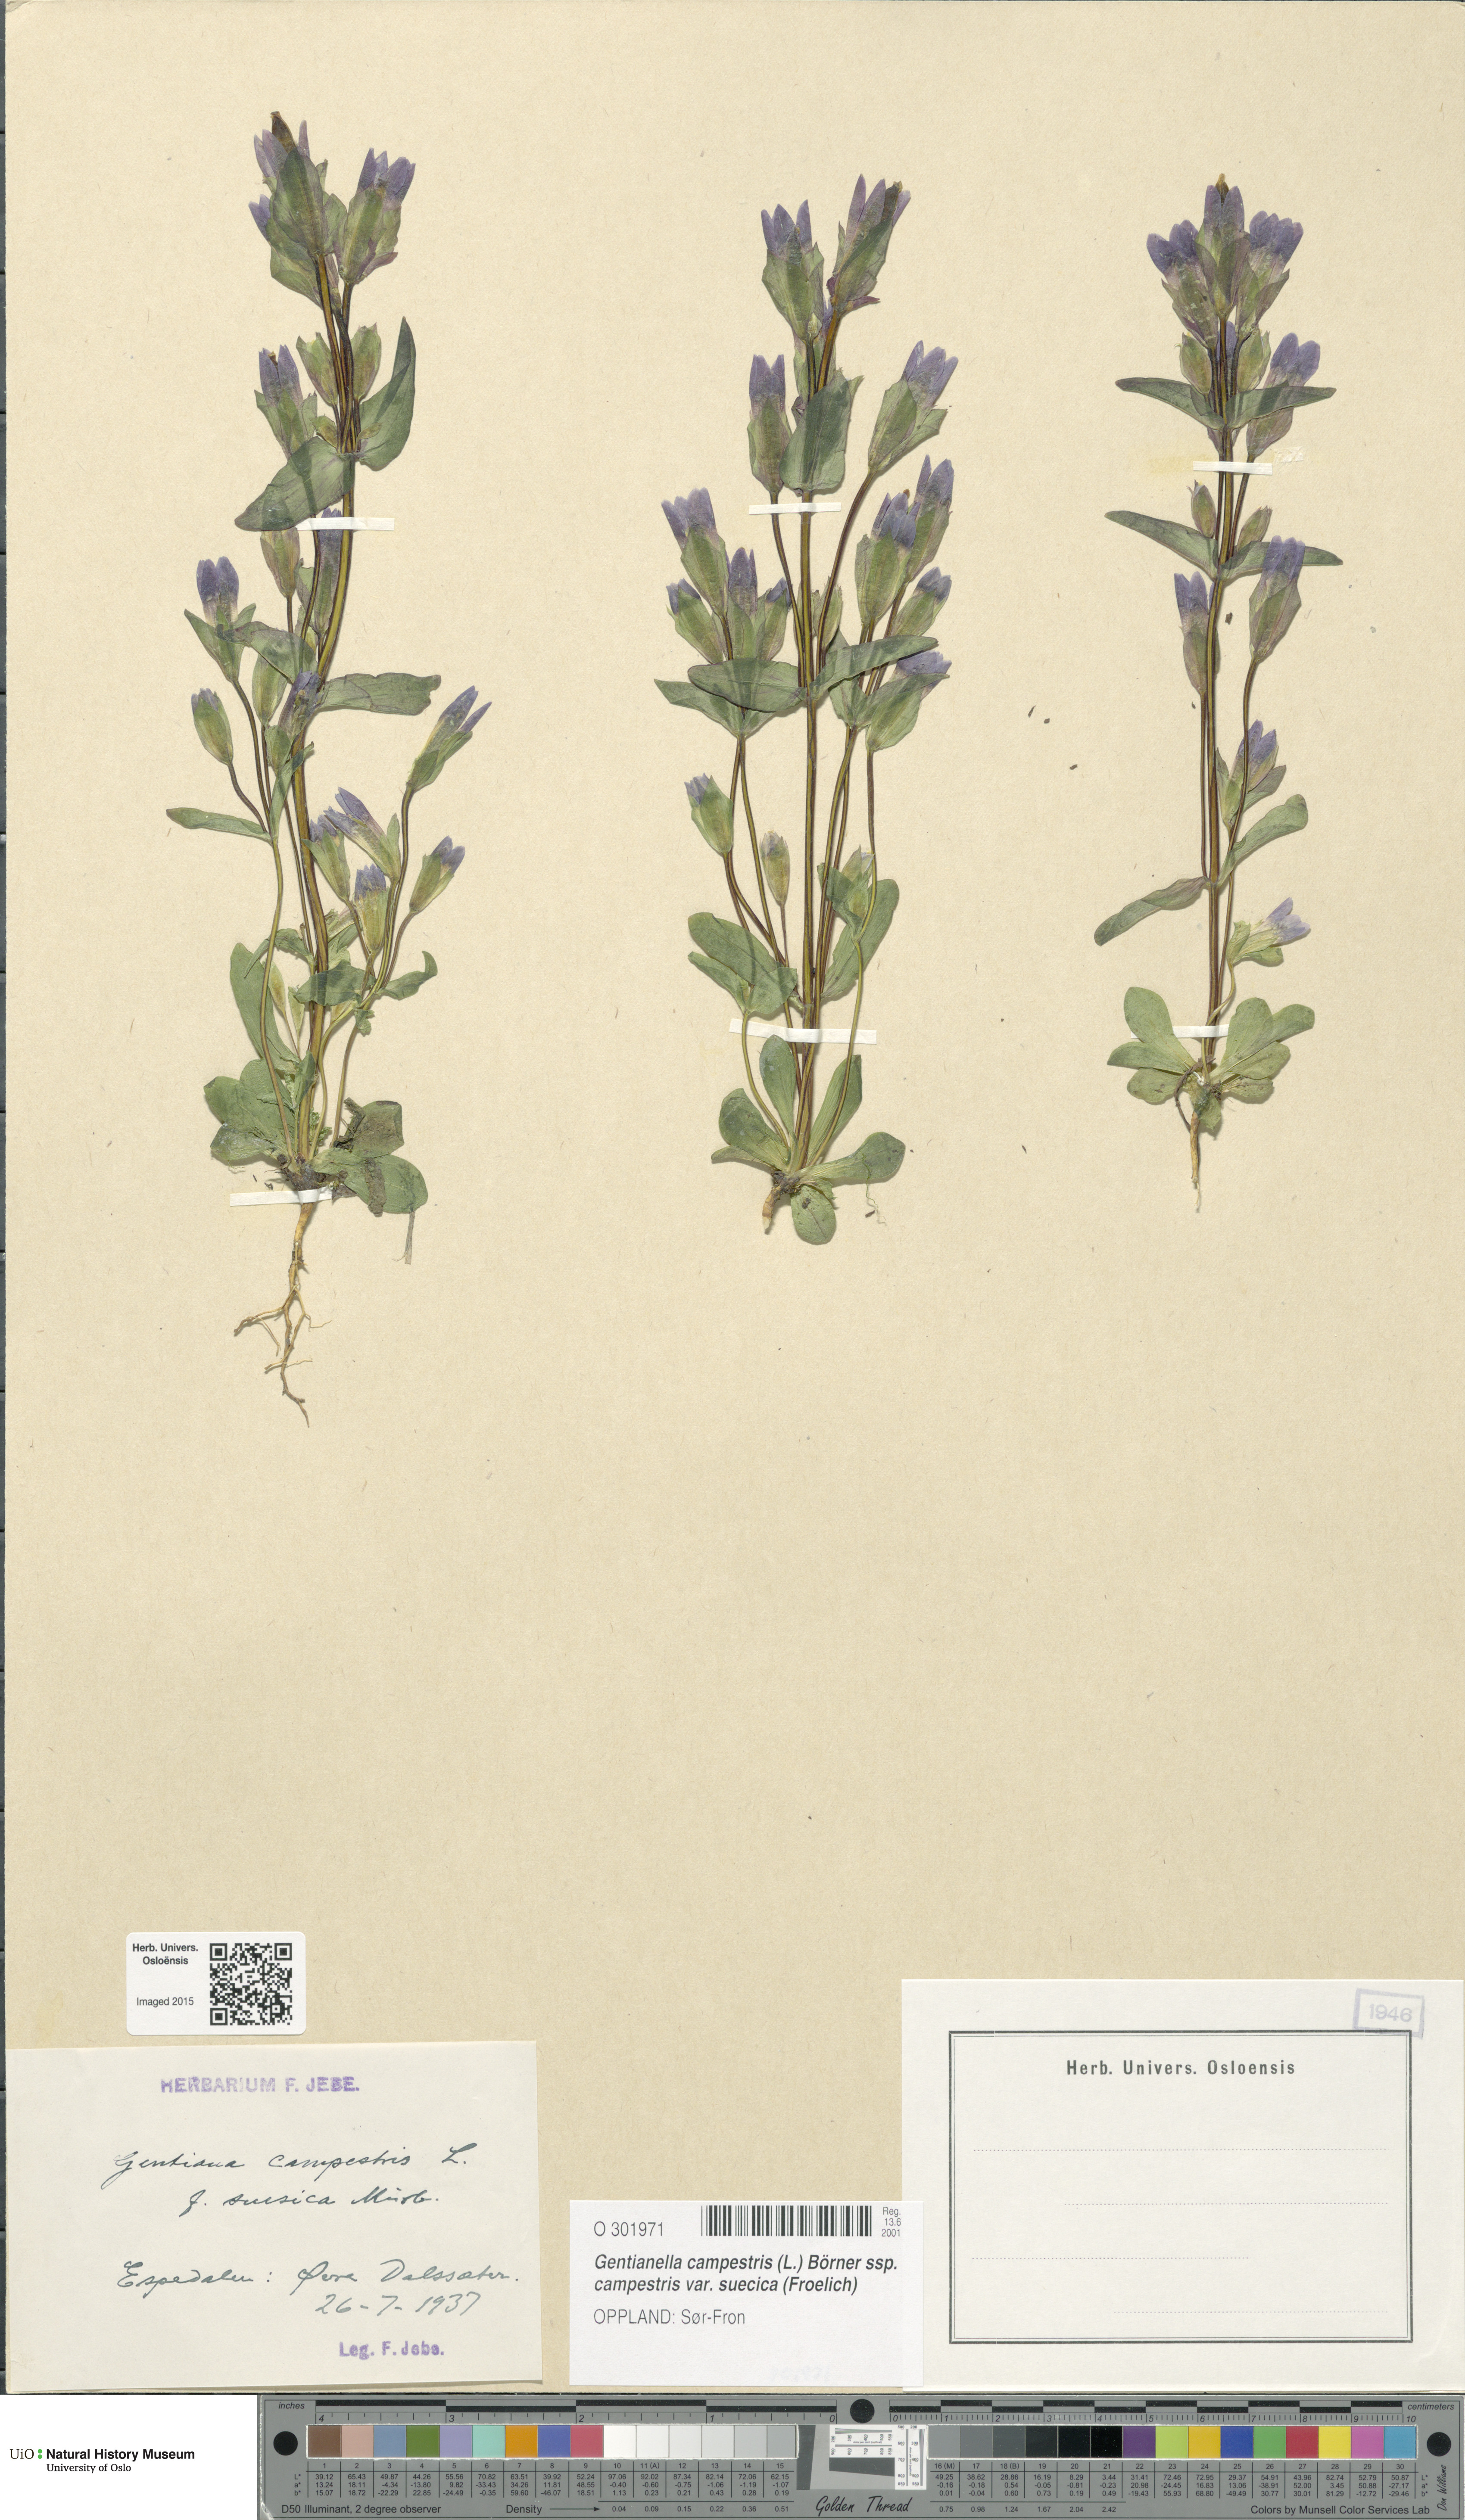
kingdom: Plantae
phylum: Tracheophyta
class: Magnoliopsida
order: Gentianales
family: Gentianaceae
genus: Gentianella
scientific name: Gentianella campestris
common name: Field gentian
